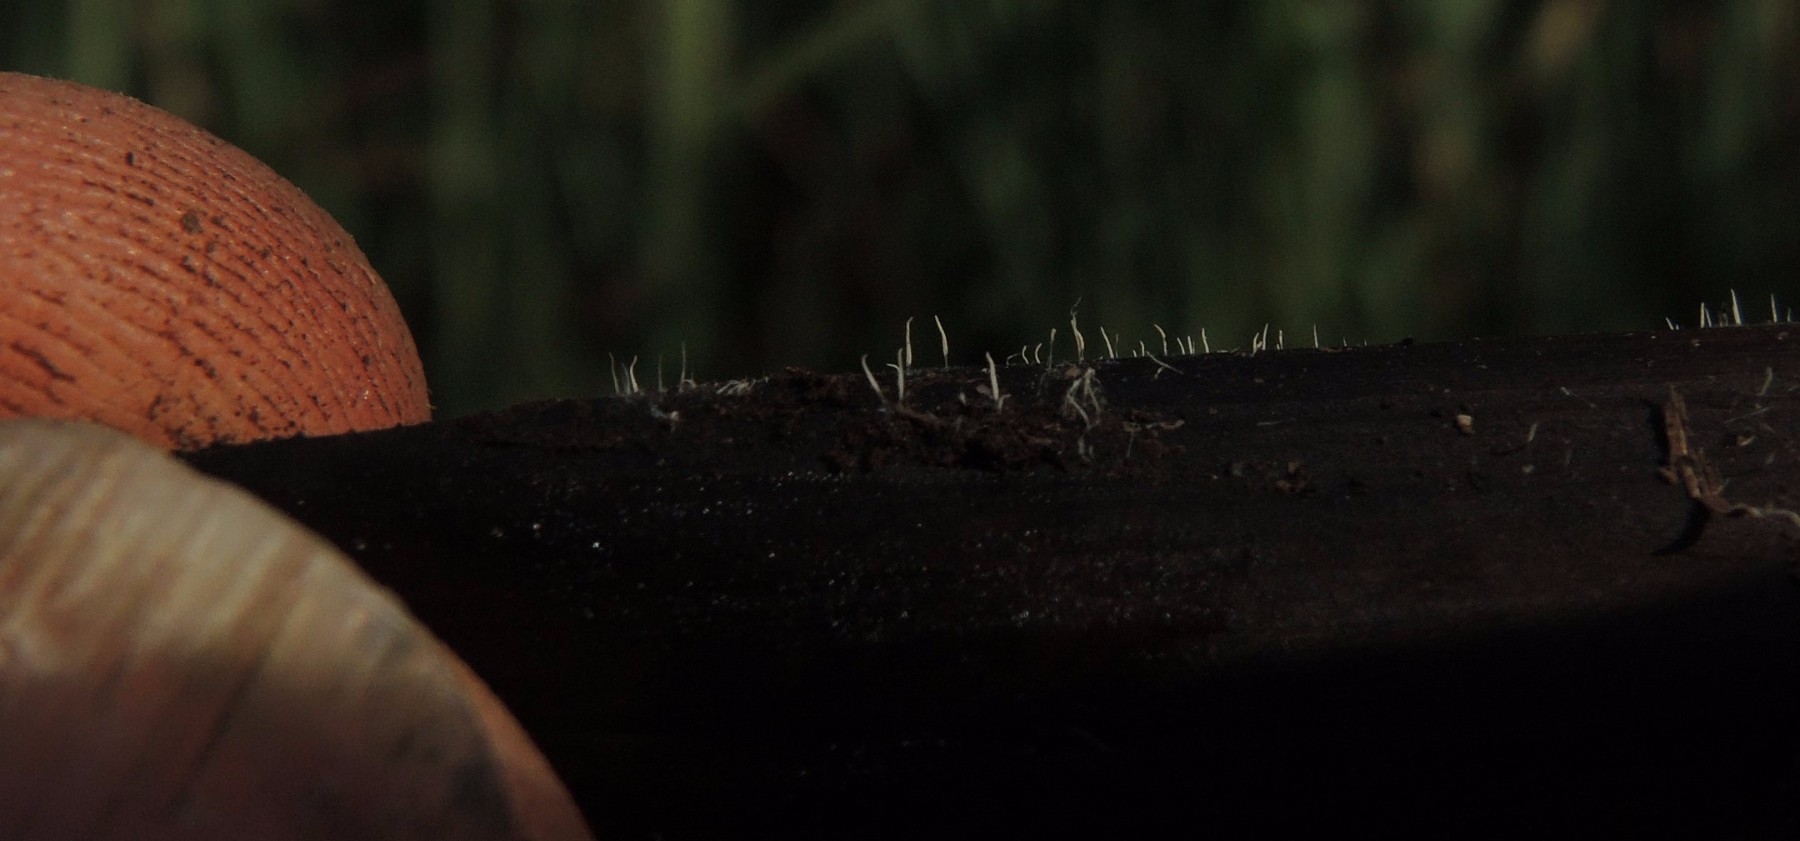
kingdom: Fungi
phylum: Basidiomycota
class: Agaricomycetes
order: Gomphales
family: Gomphaceae
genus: Ceratellopsis
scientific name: Ceratellopsis aculeata
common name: avneknippe-sylkølle
